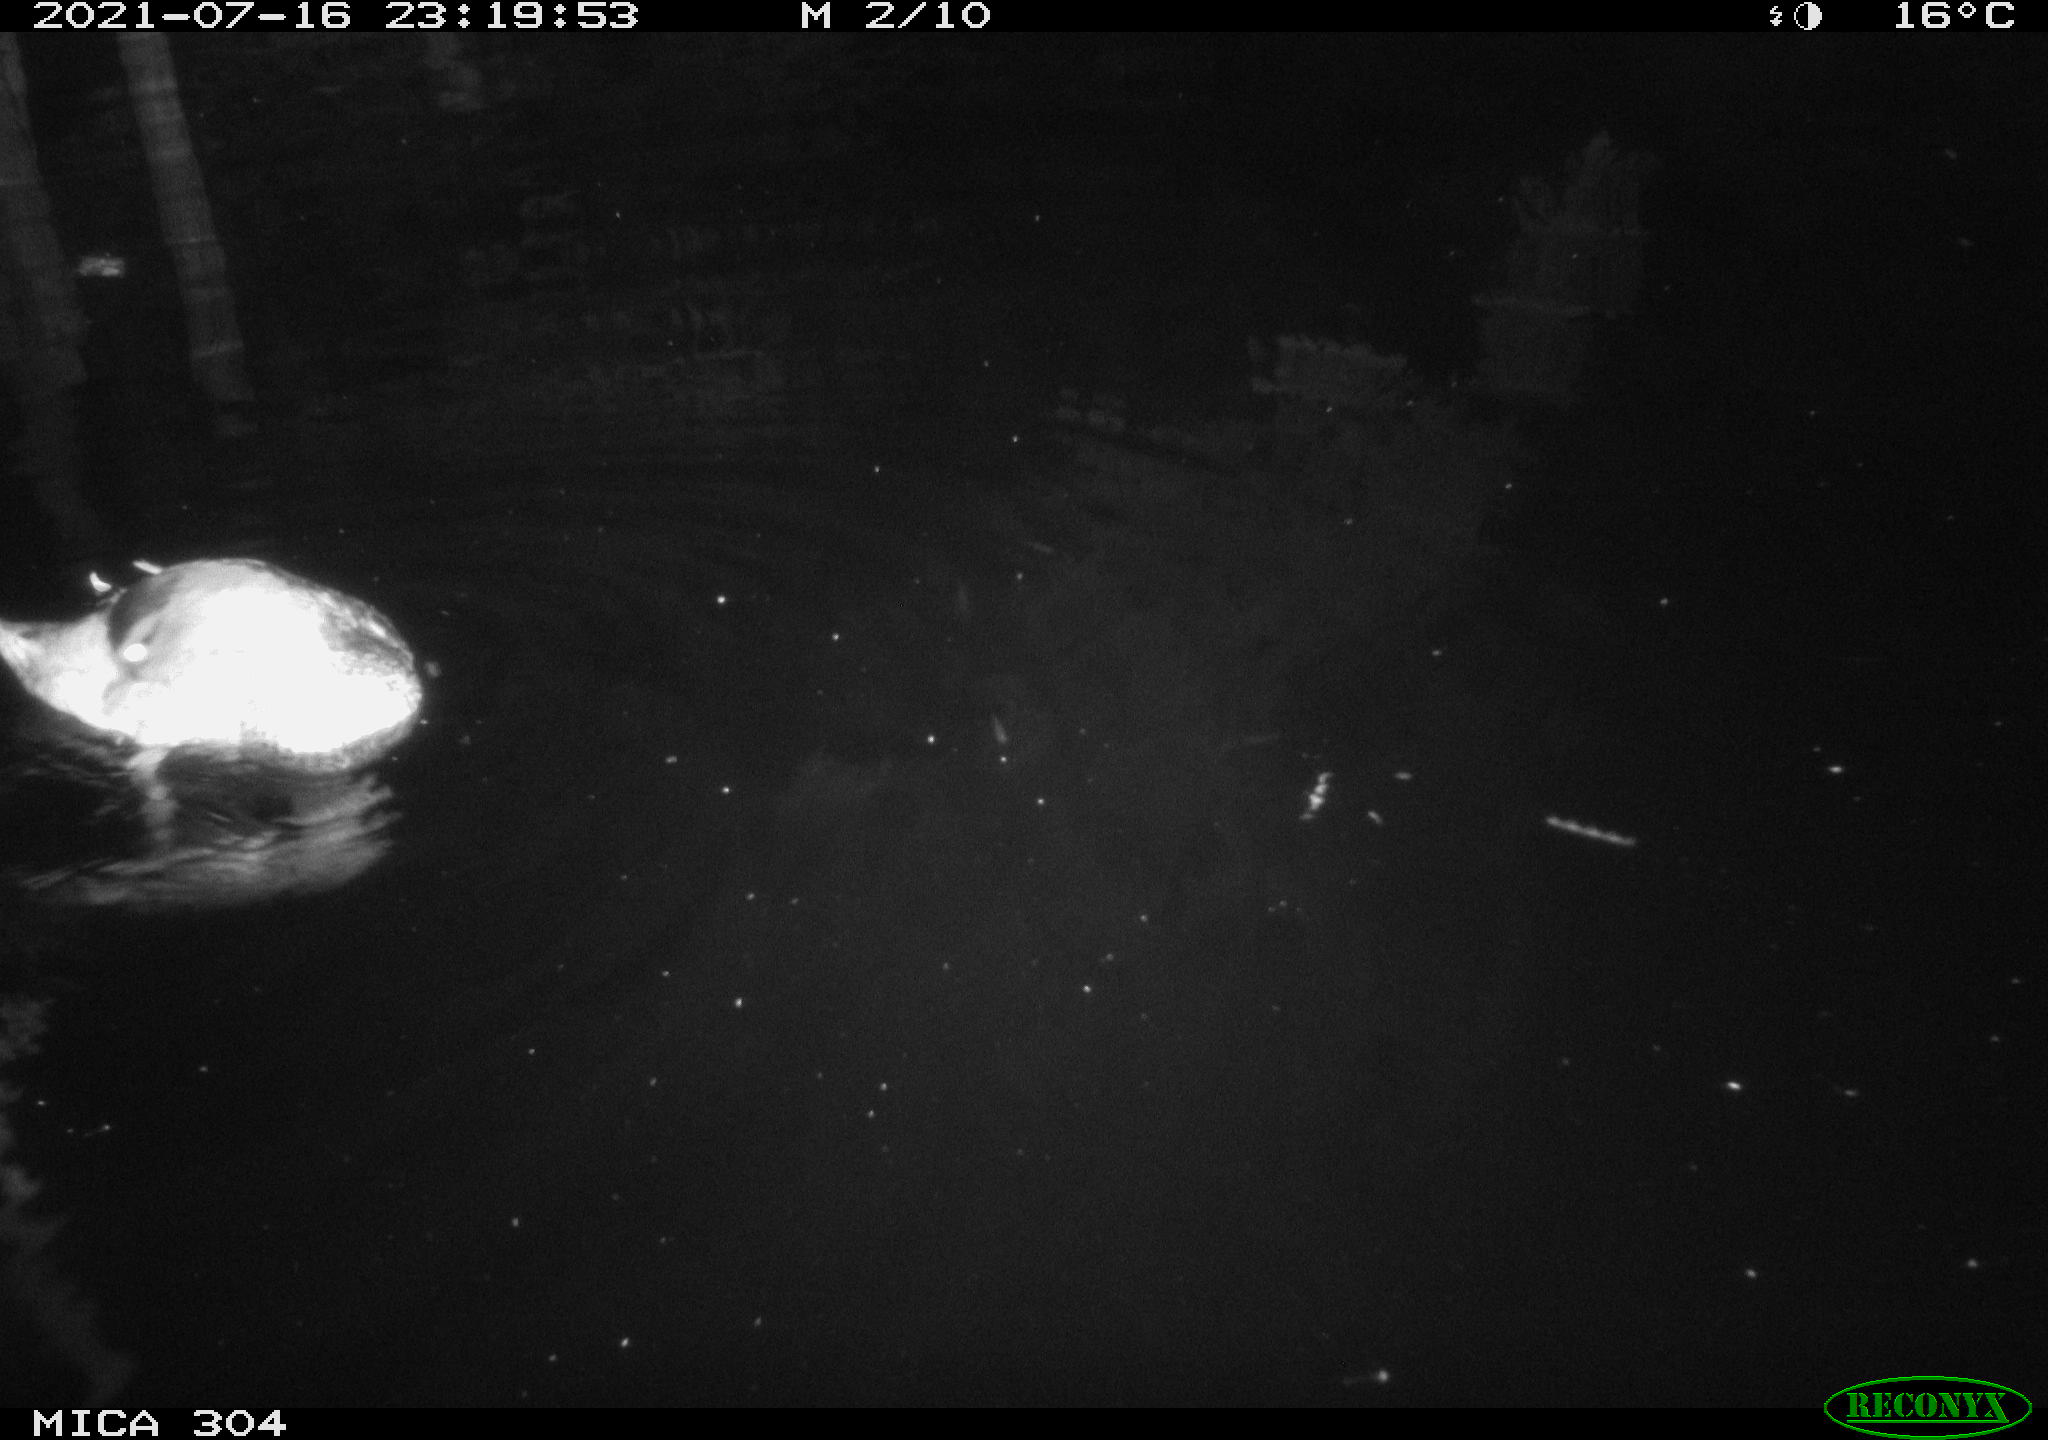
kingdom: Animalia
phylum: Chordata
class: Mammalia
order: Rodentia
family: Cricetidae
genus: Ondatra
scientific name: Ondatra zibethicus
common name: Muskrat
